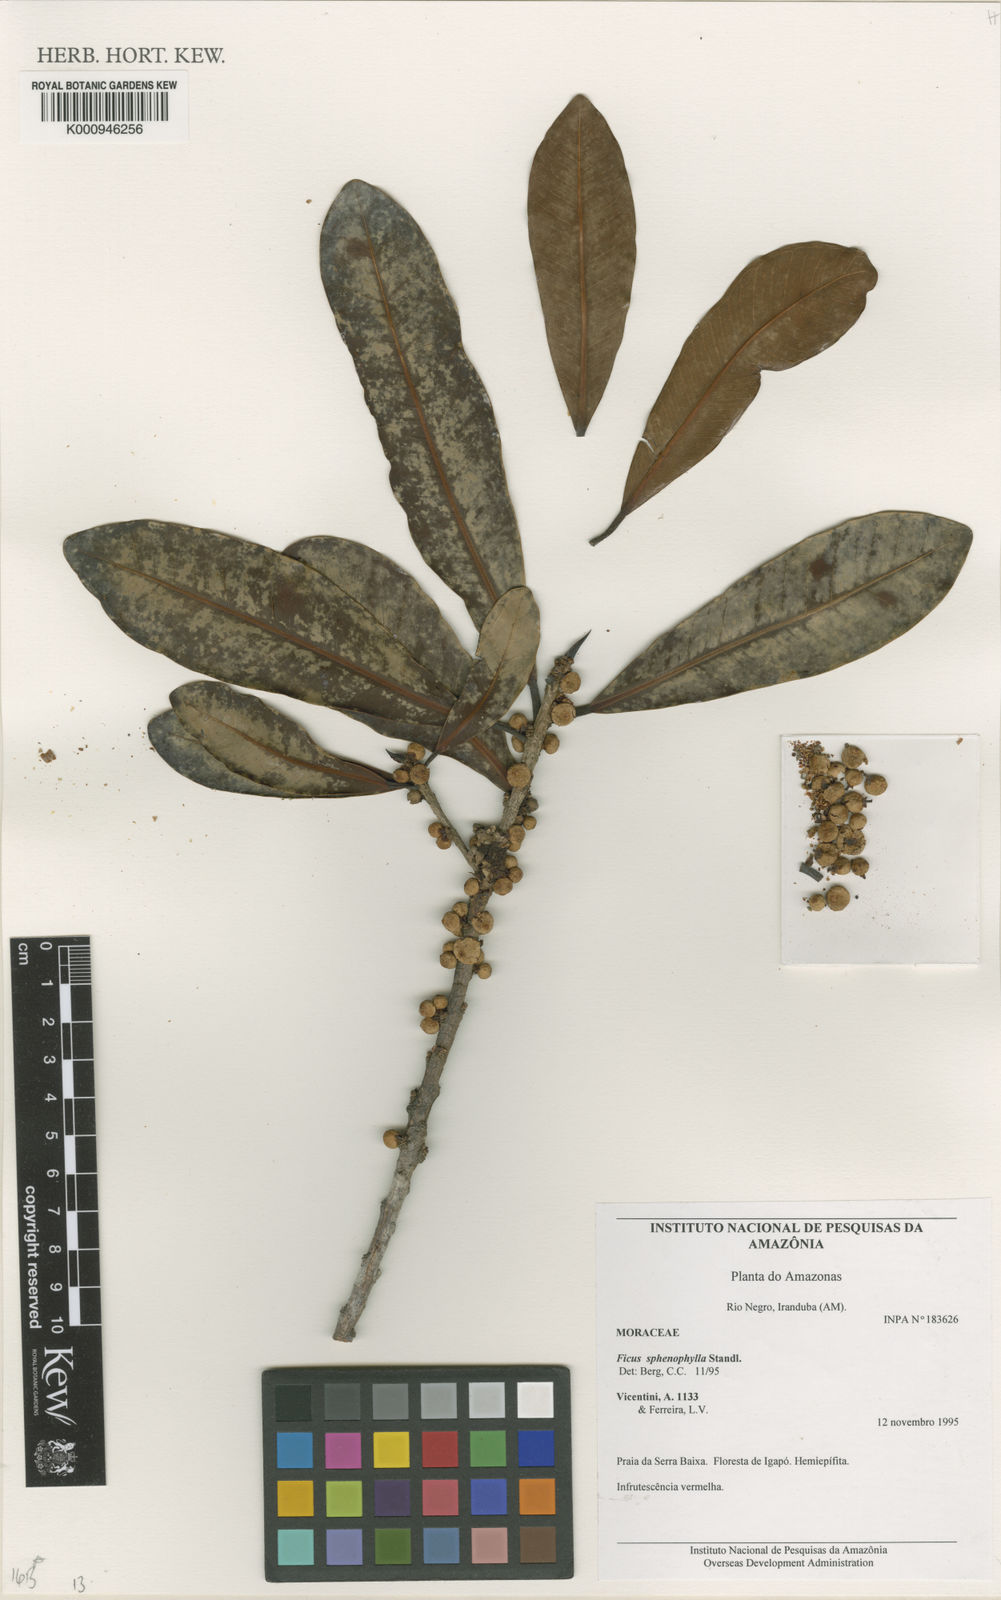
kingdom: Plantae
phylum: Tracheophyta
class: Magnoliopsida
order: Rosales
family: Moraceae
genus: Ficus
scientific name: Ficus sphenophylla
